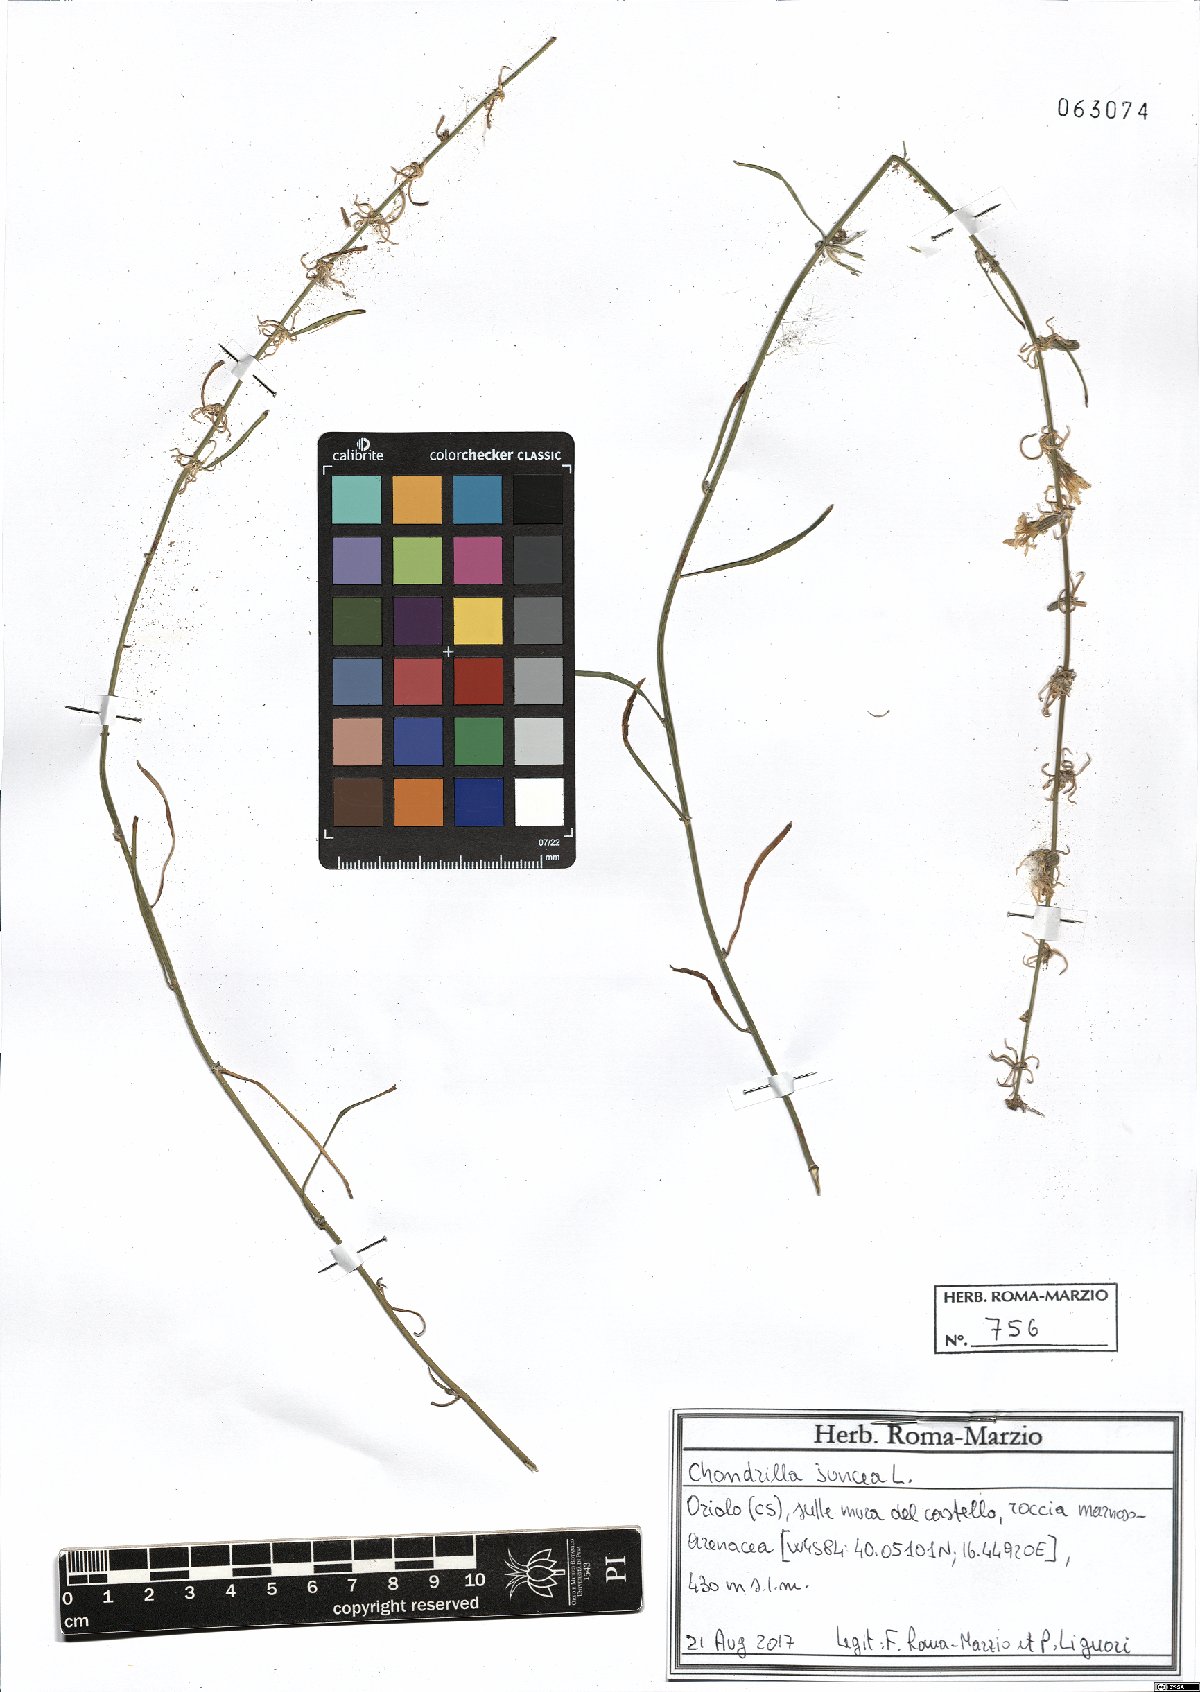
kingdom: Plantae
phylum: Tracheophyta
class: Magnoliopsida
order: Asterales
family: Asteraceae
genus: Chondrilla
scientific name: Chondrilla juncea
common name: Skeleton weed
